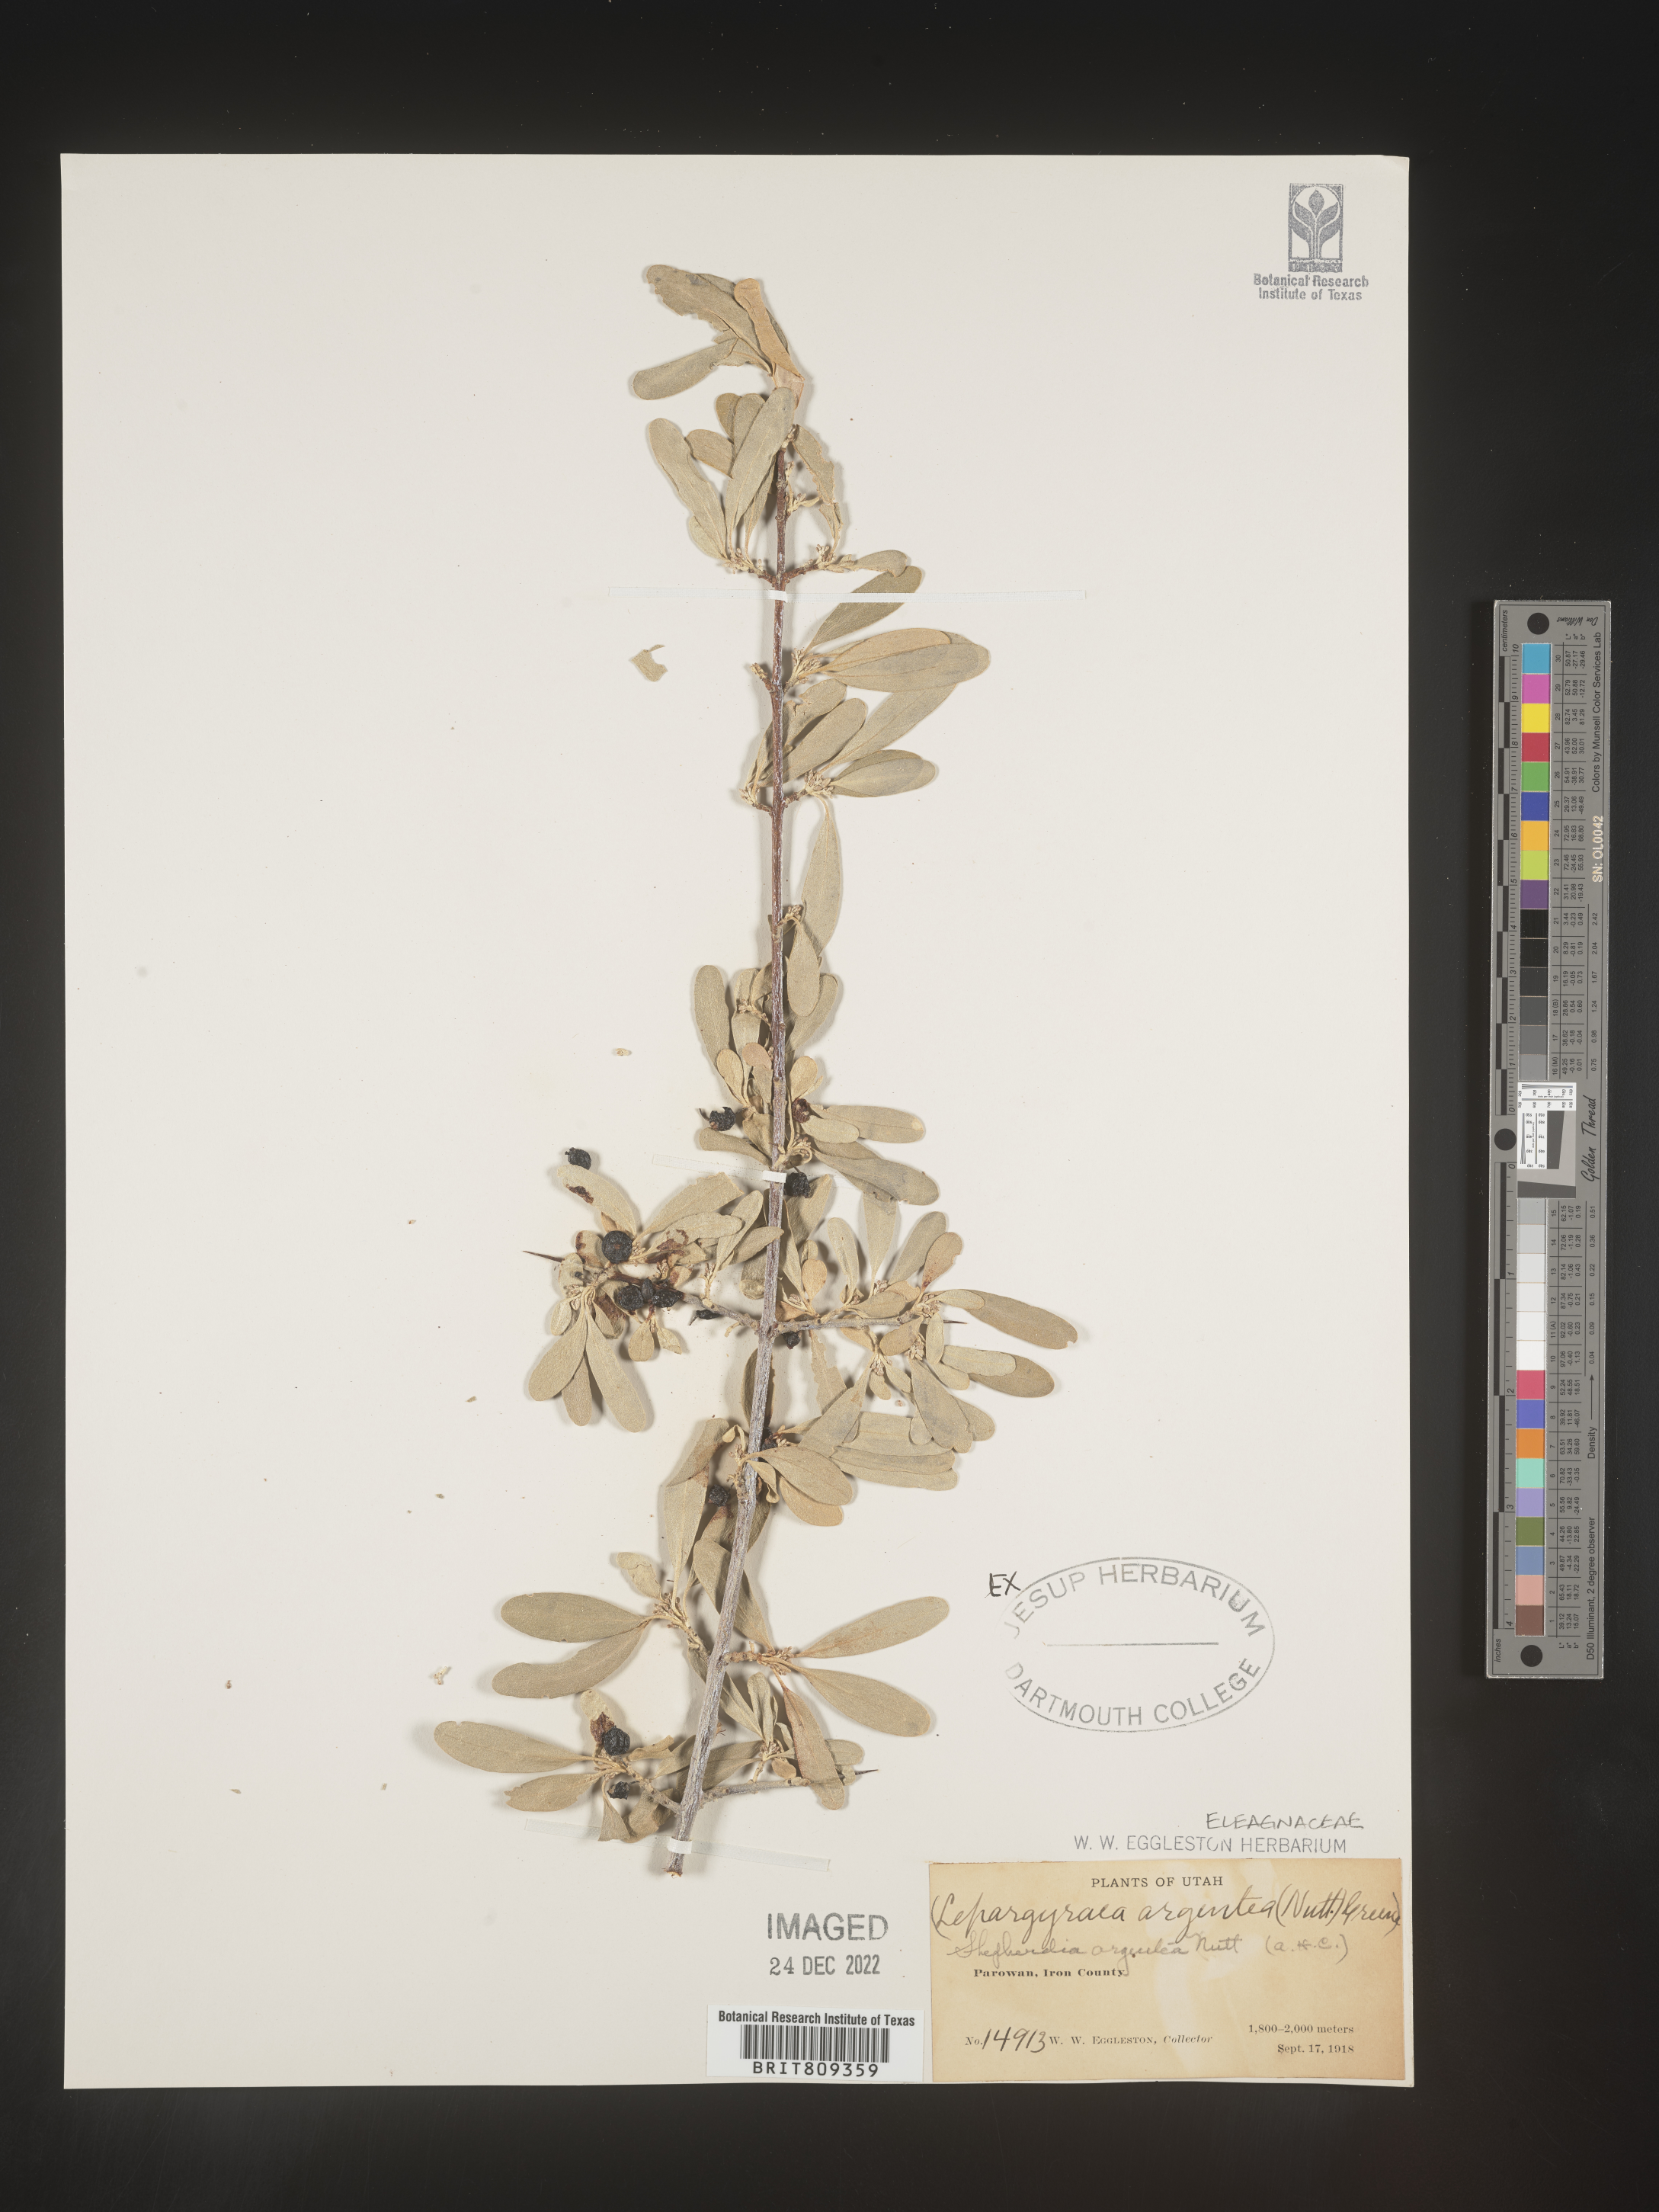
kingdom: Plantae
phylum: Tracheophyta
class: Magnoliopsida
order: Rosales
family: Elaeagnaceae
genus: Shepherdia
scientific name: Shepherdia argentea
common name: Silver buffaloberry
